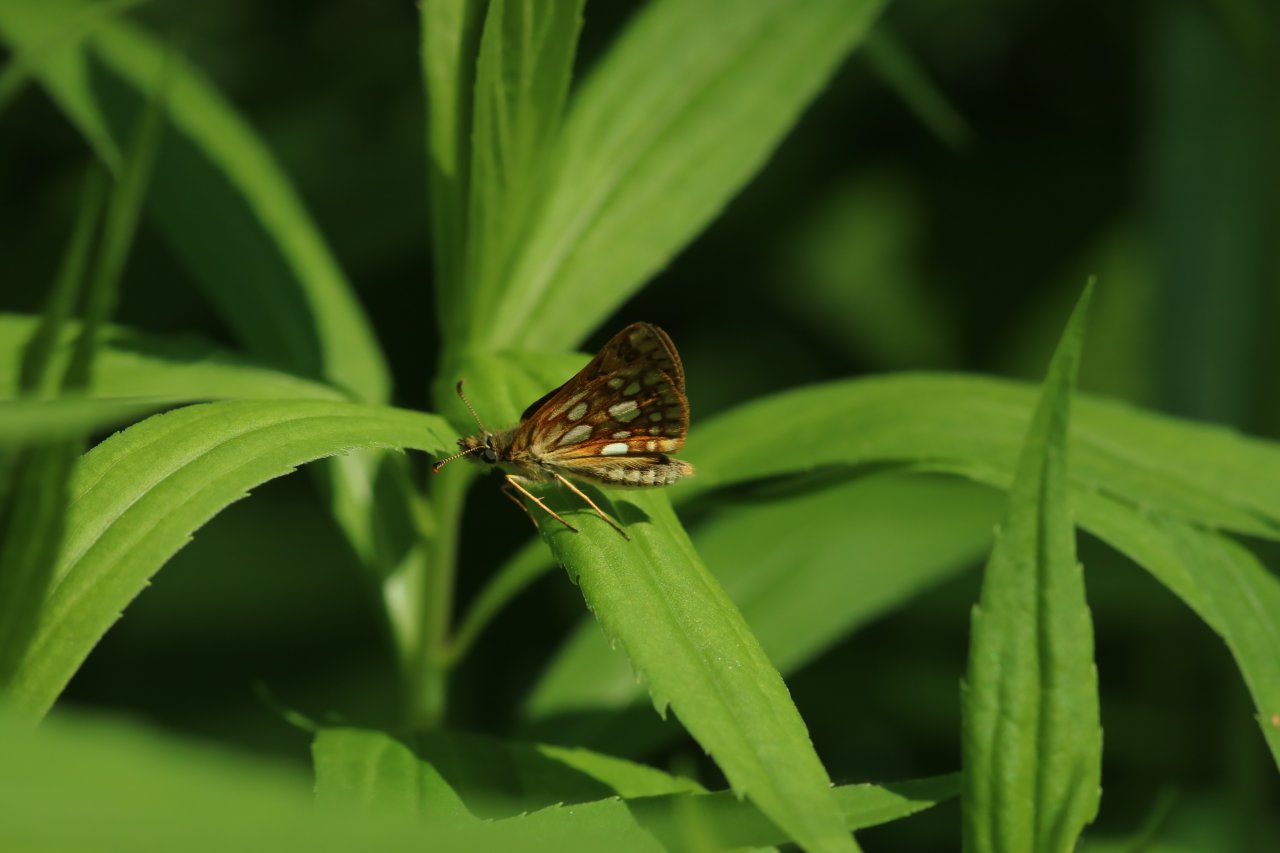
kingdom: Animalia
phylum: Arthropoda
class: Insecta
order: Lepidoptera
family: Hesperiidae
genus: Carterocephalus
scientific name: Carterocephalus palaemon
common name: Chequered Skipper
